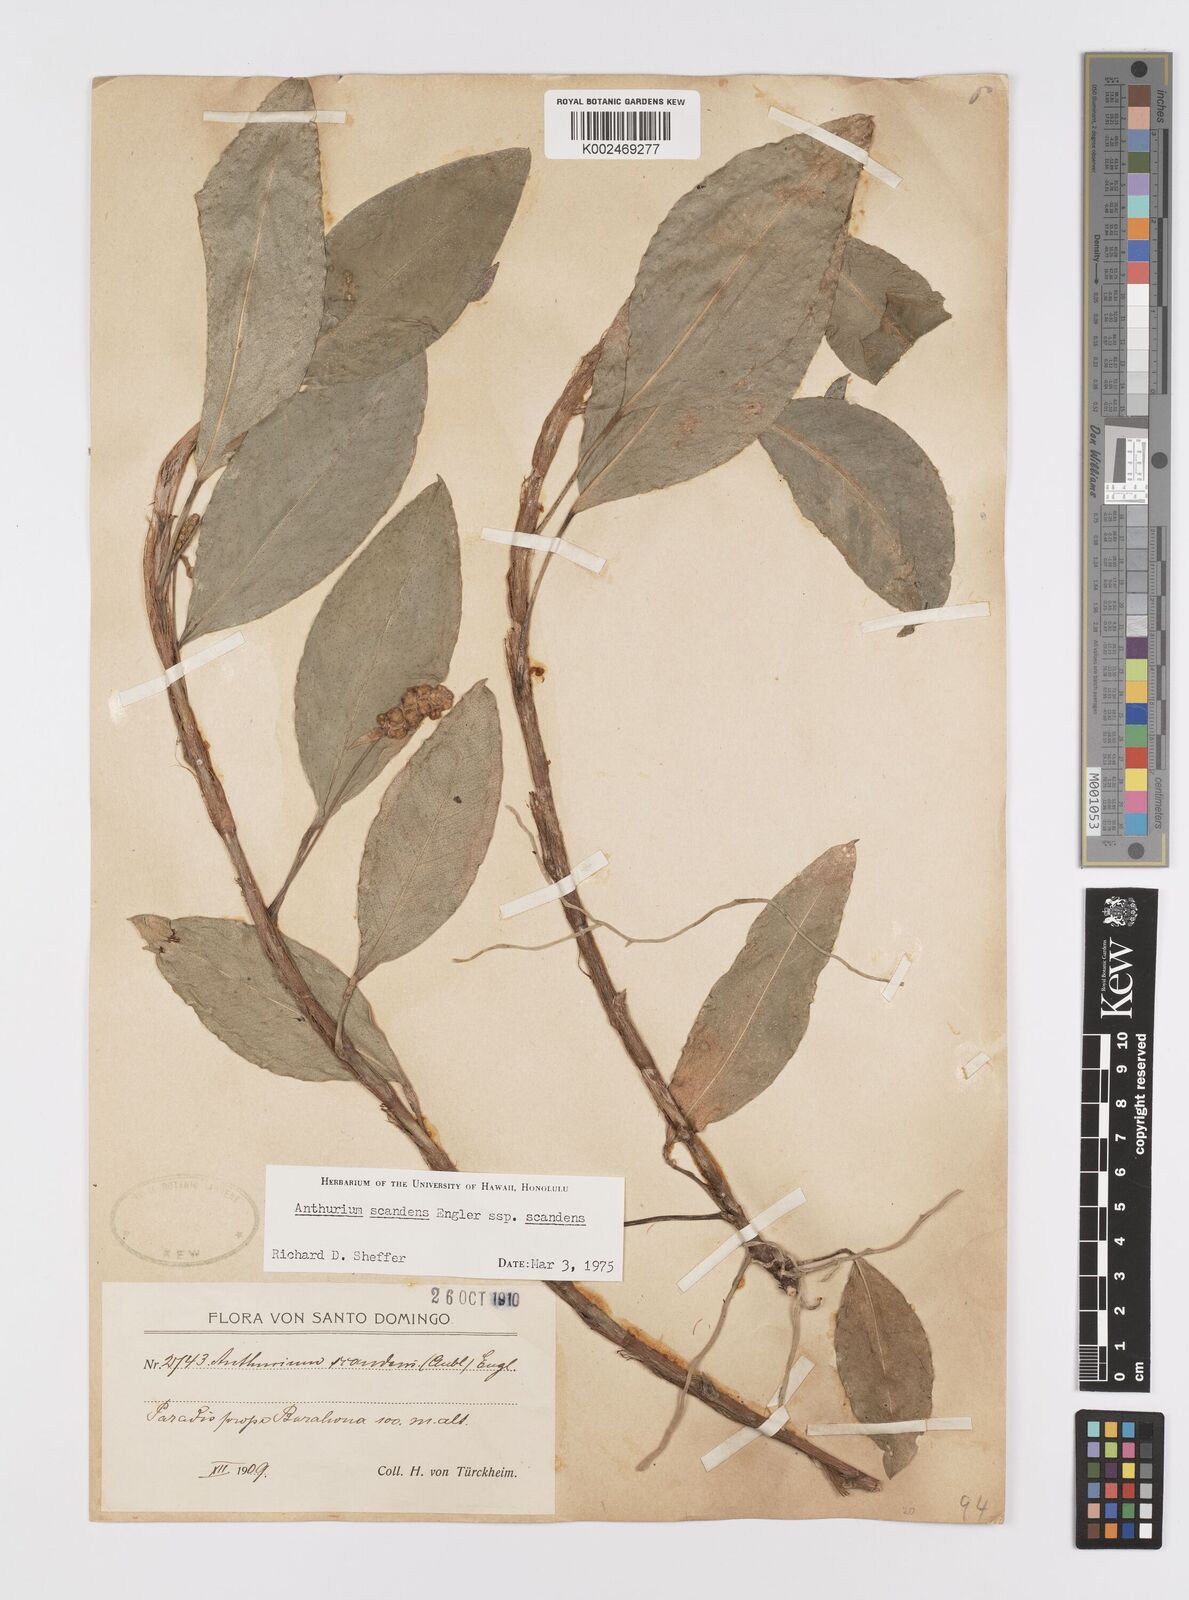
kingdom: Plantae
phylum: Tracheophyta
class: Liliopsida
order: Alismatales
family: Araceae
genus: Anthurium
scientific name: Anthurium scandens
